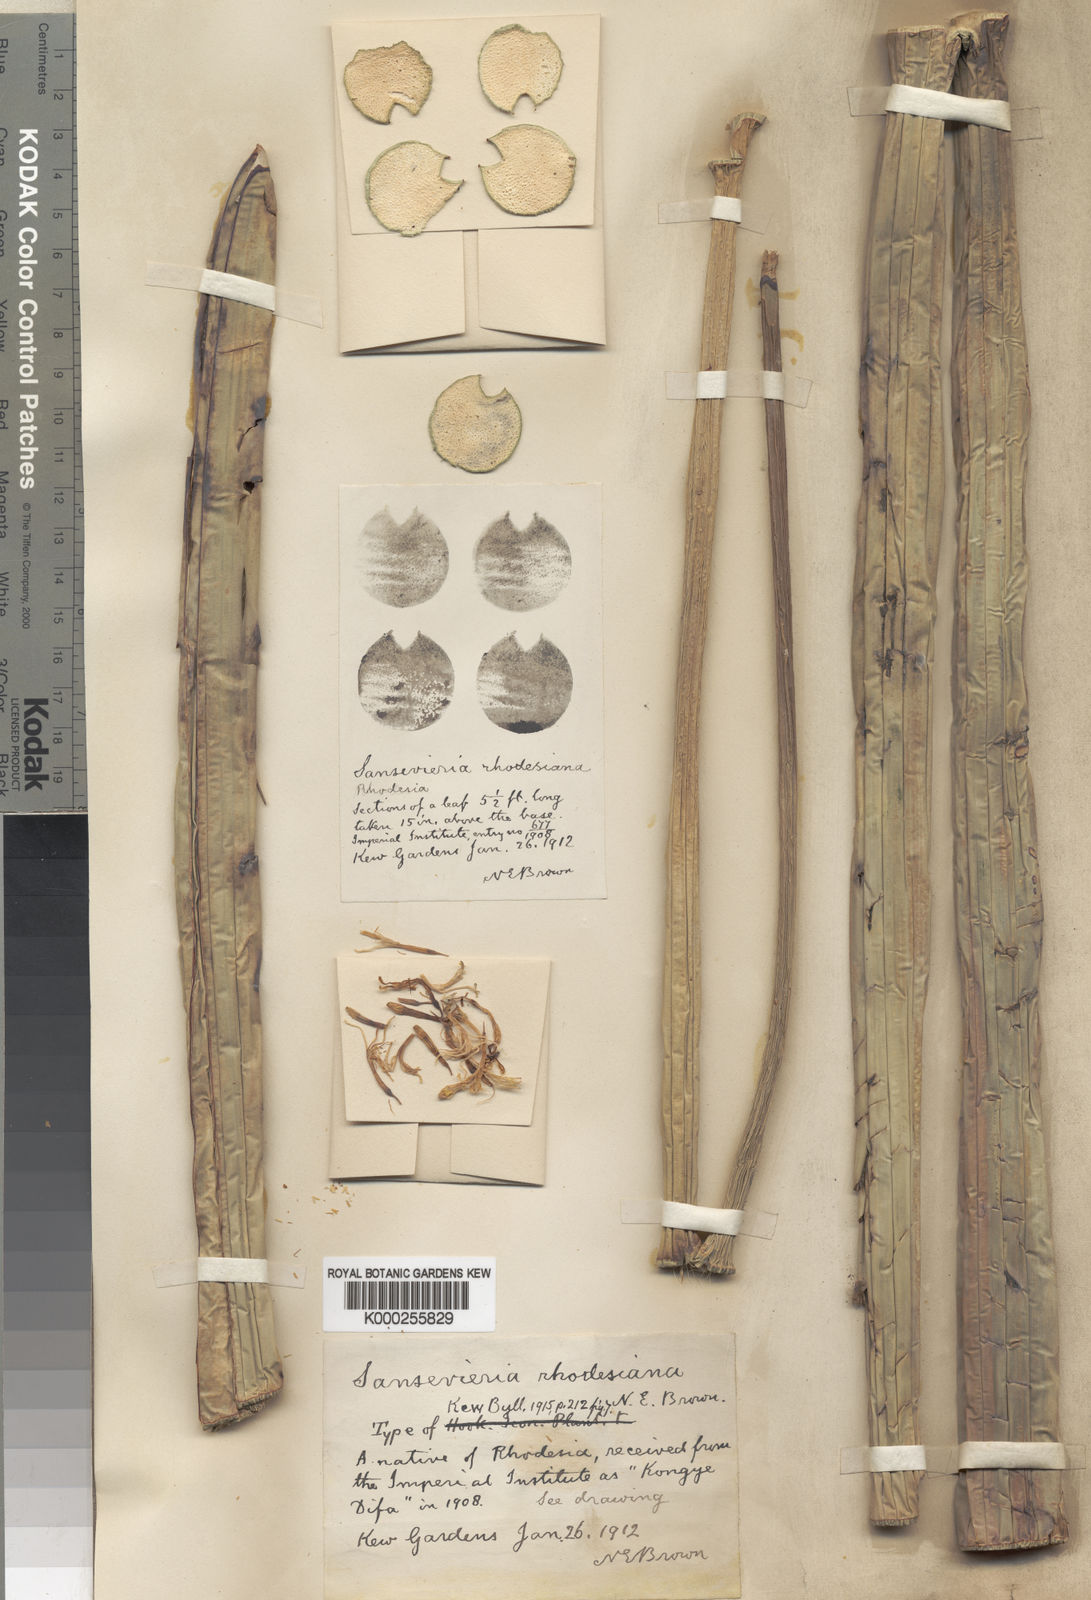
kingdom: Plantae
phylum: Tracheophyta
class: Liliopsida
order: Asparagales
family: Asparagaceae
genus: Dracaena
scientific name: Dracaena pearsonii
